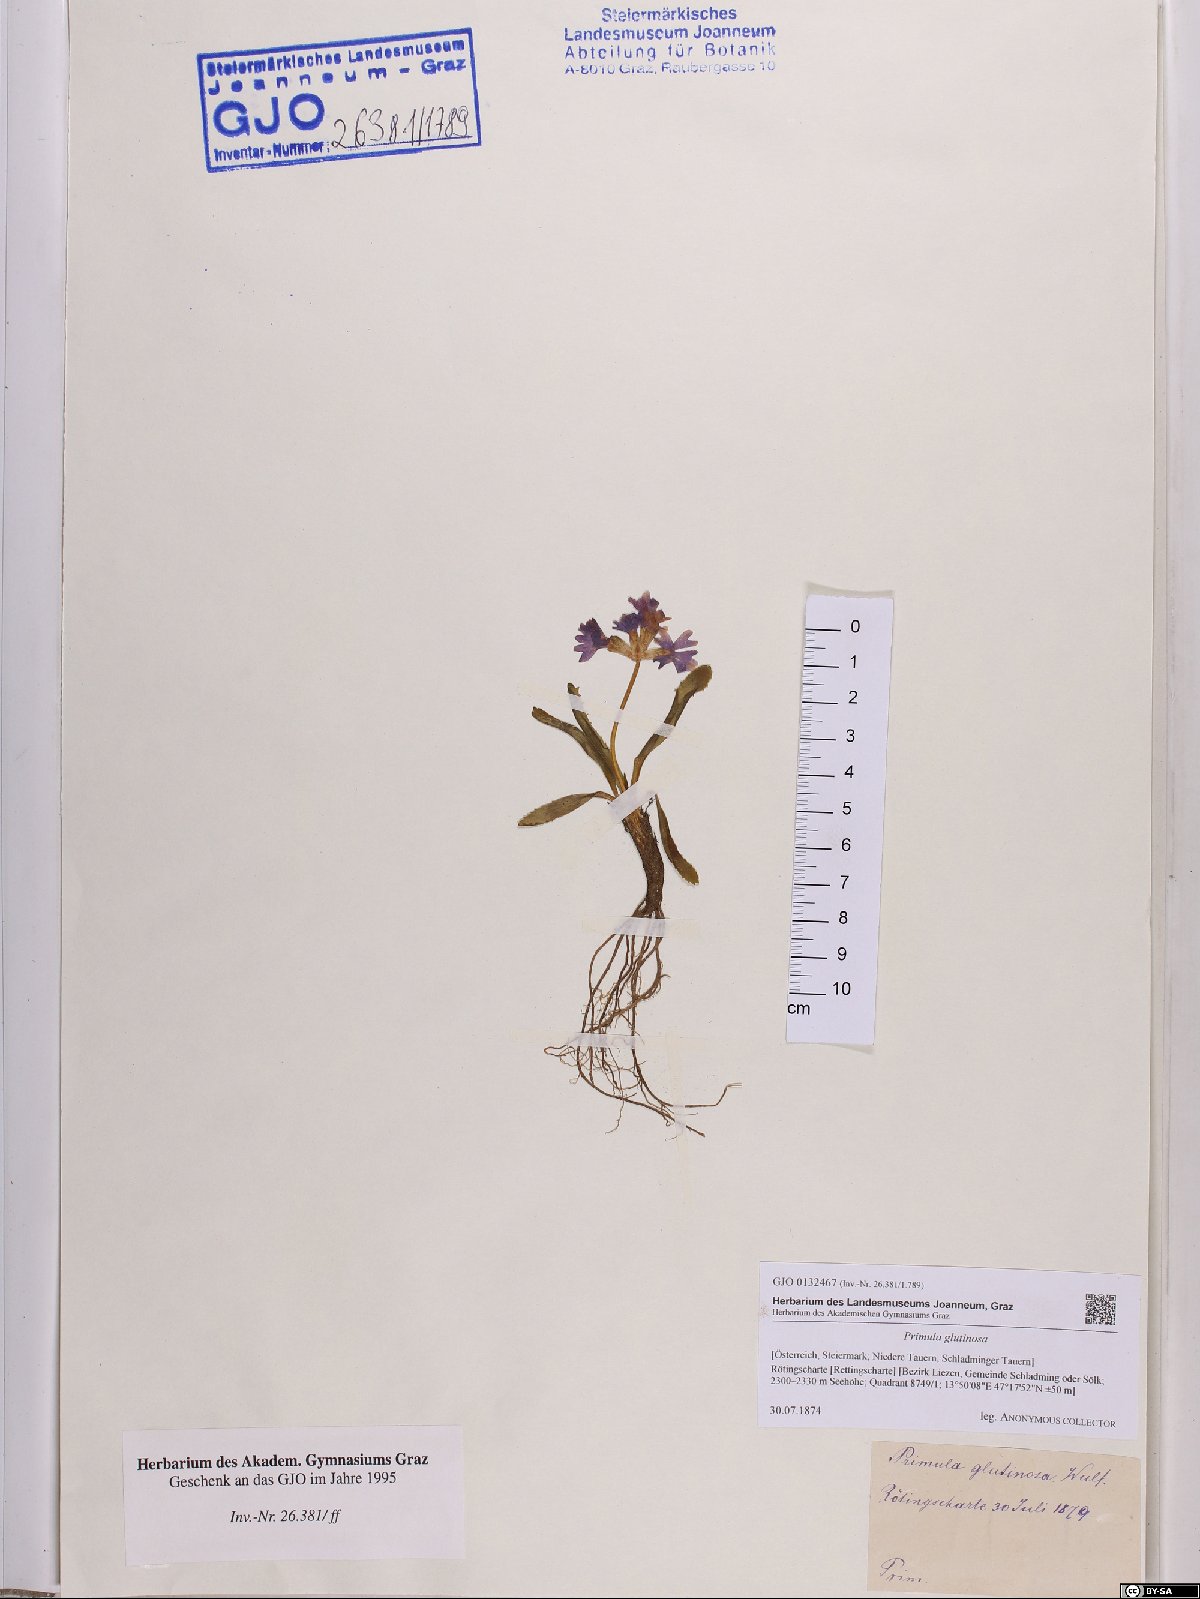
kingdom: Plantae
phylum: Tracheophyta
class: Magnoliopsida
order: Ericales
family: Primulaceae
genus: Primula
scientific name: Primula glutinosa
